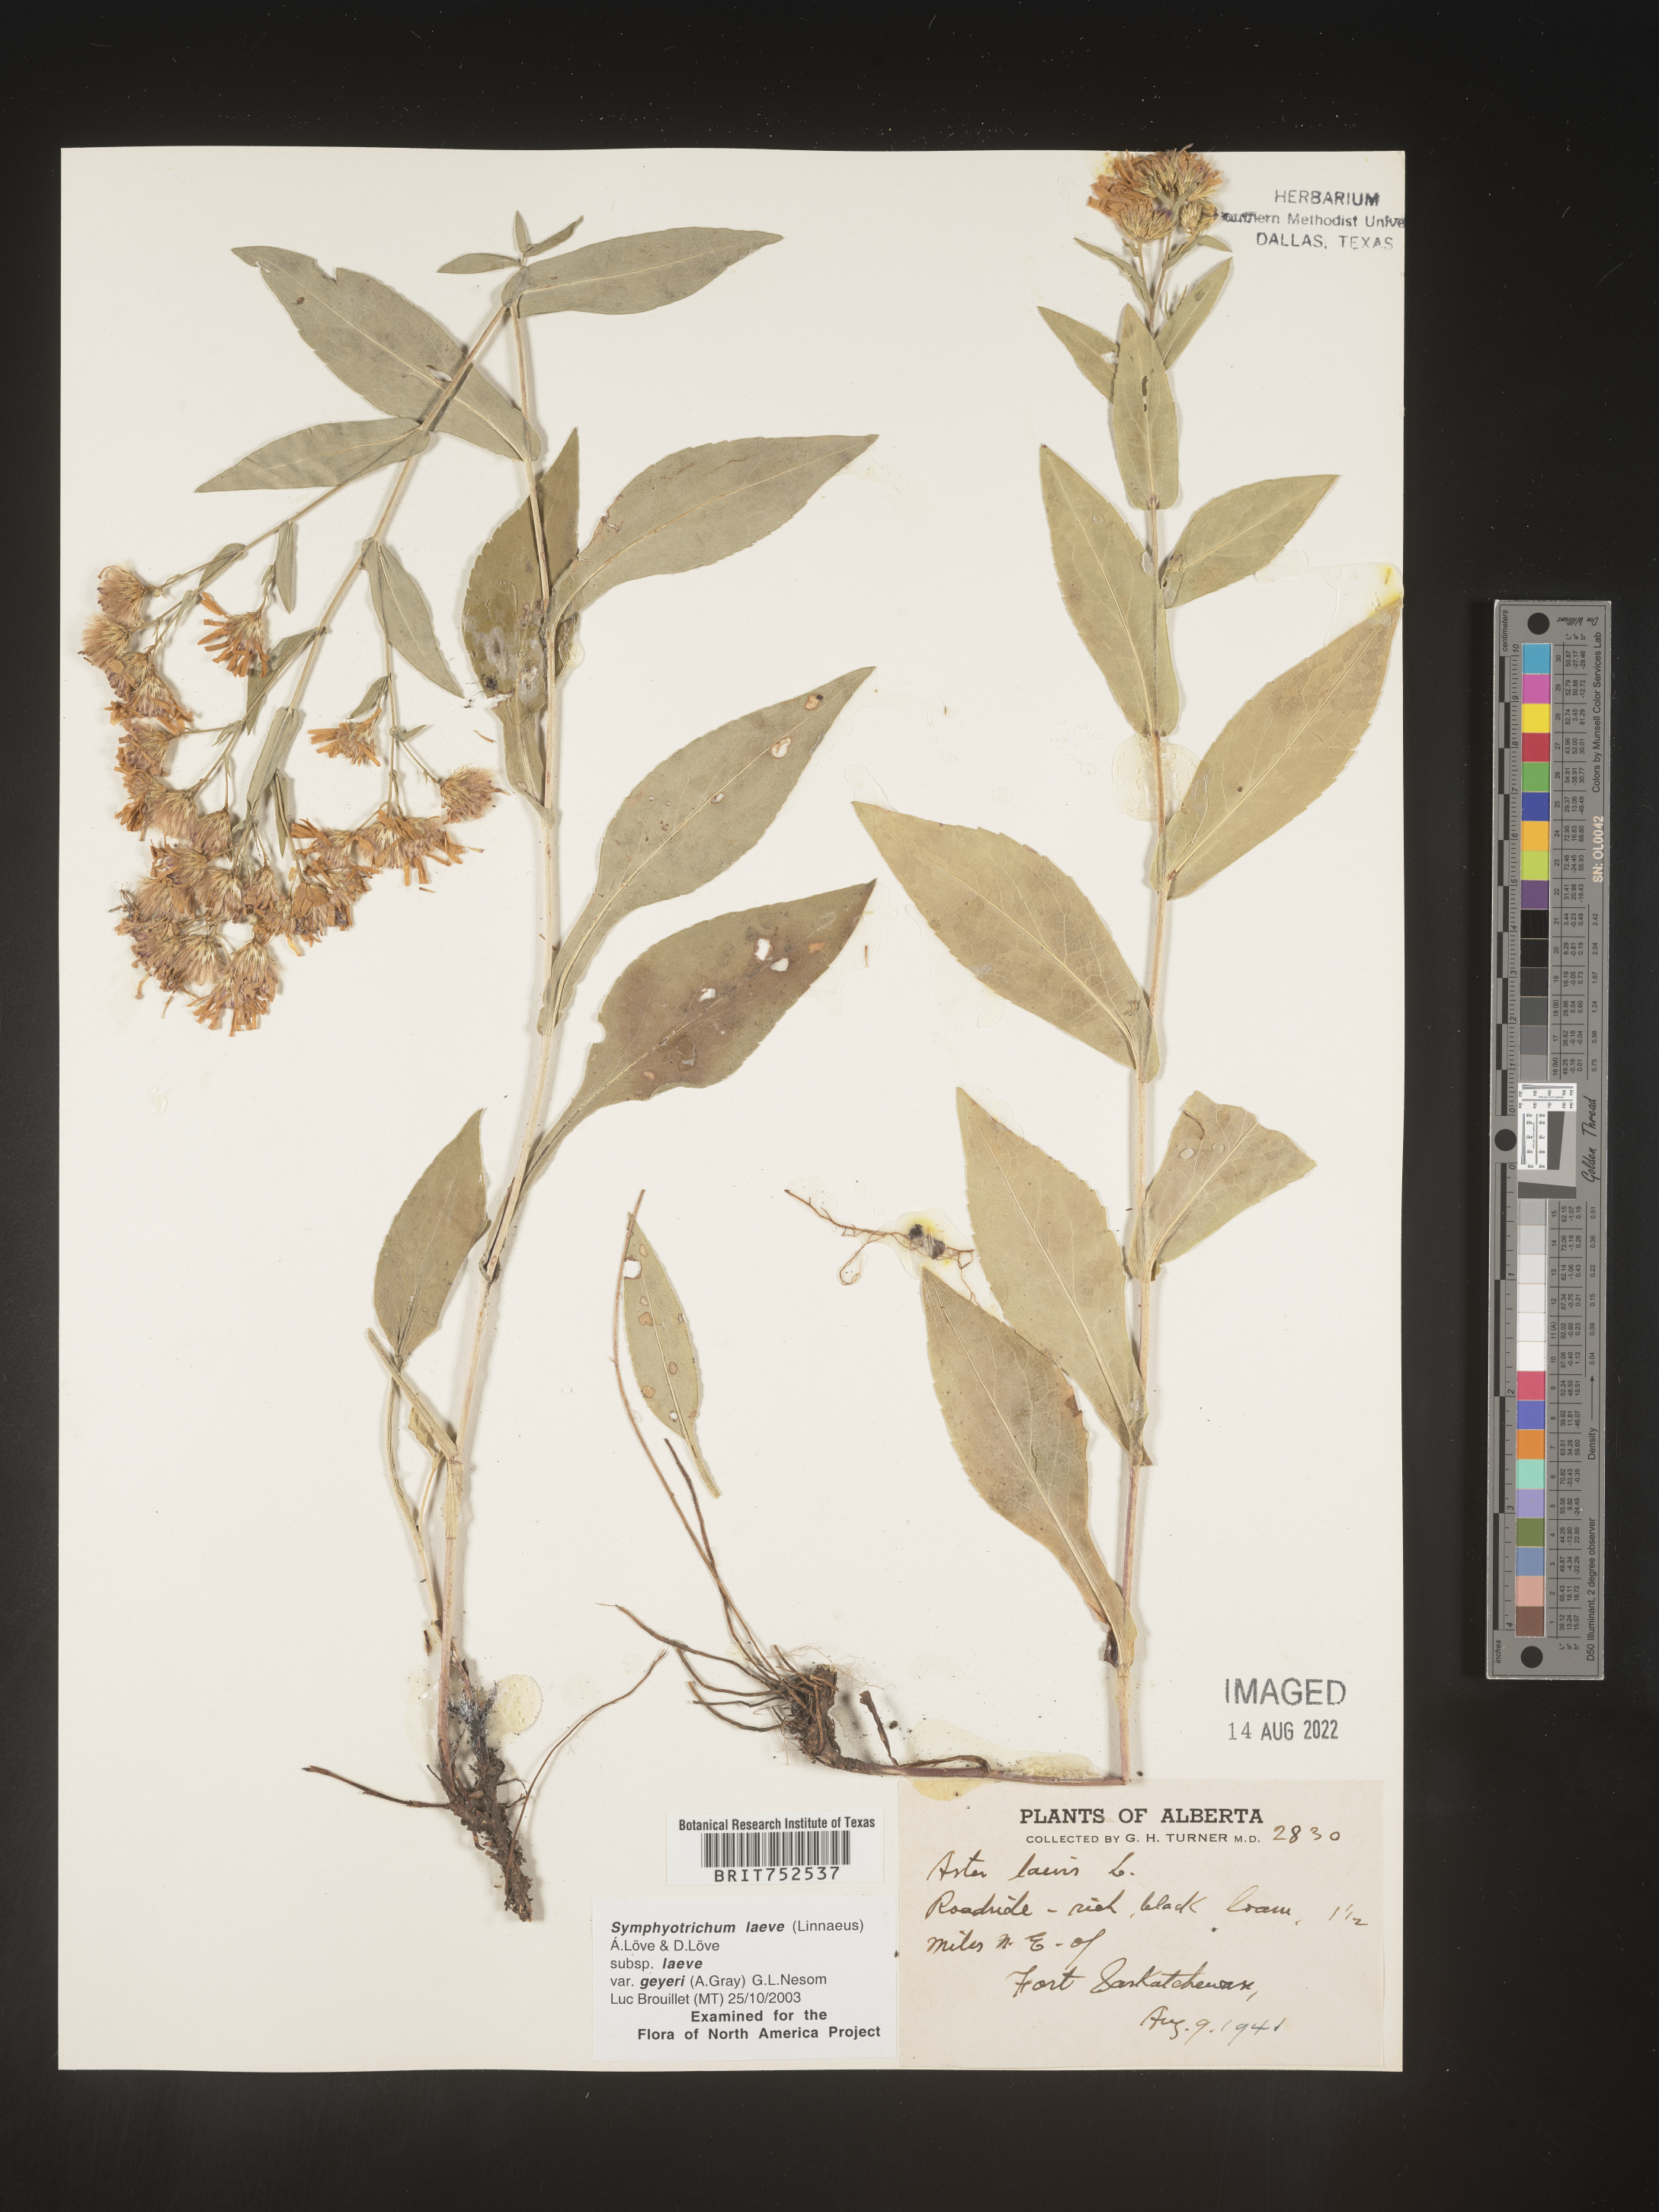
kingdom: Plantae
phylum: Tracheophyta
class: Magnoliopsida
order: Asterales
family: Asteraceae
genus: Symphyotrichum
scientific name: Symphyotrichum laeve
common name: Glaucous aster
